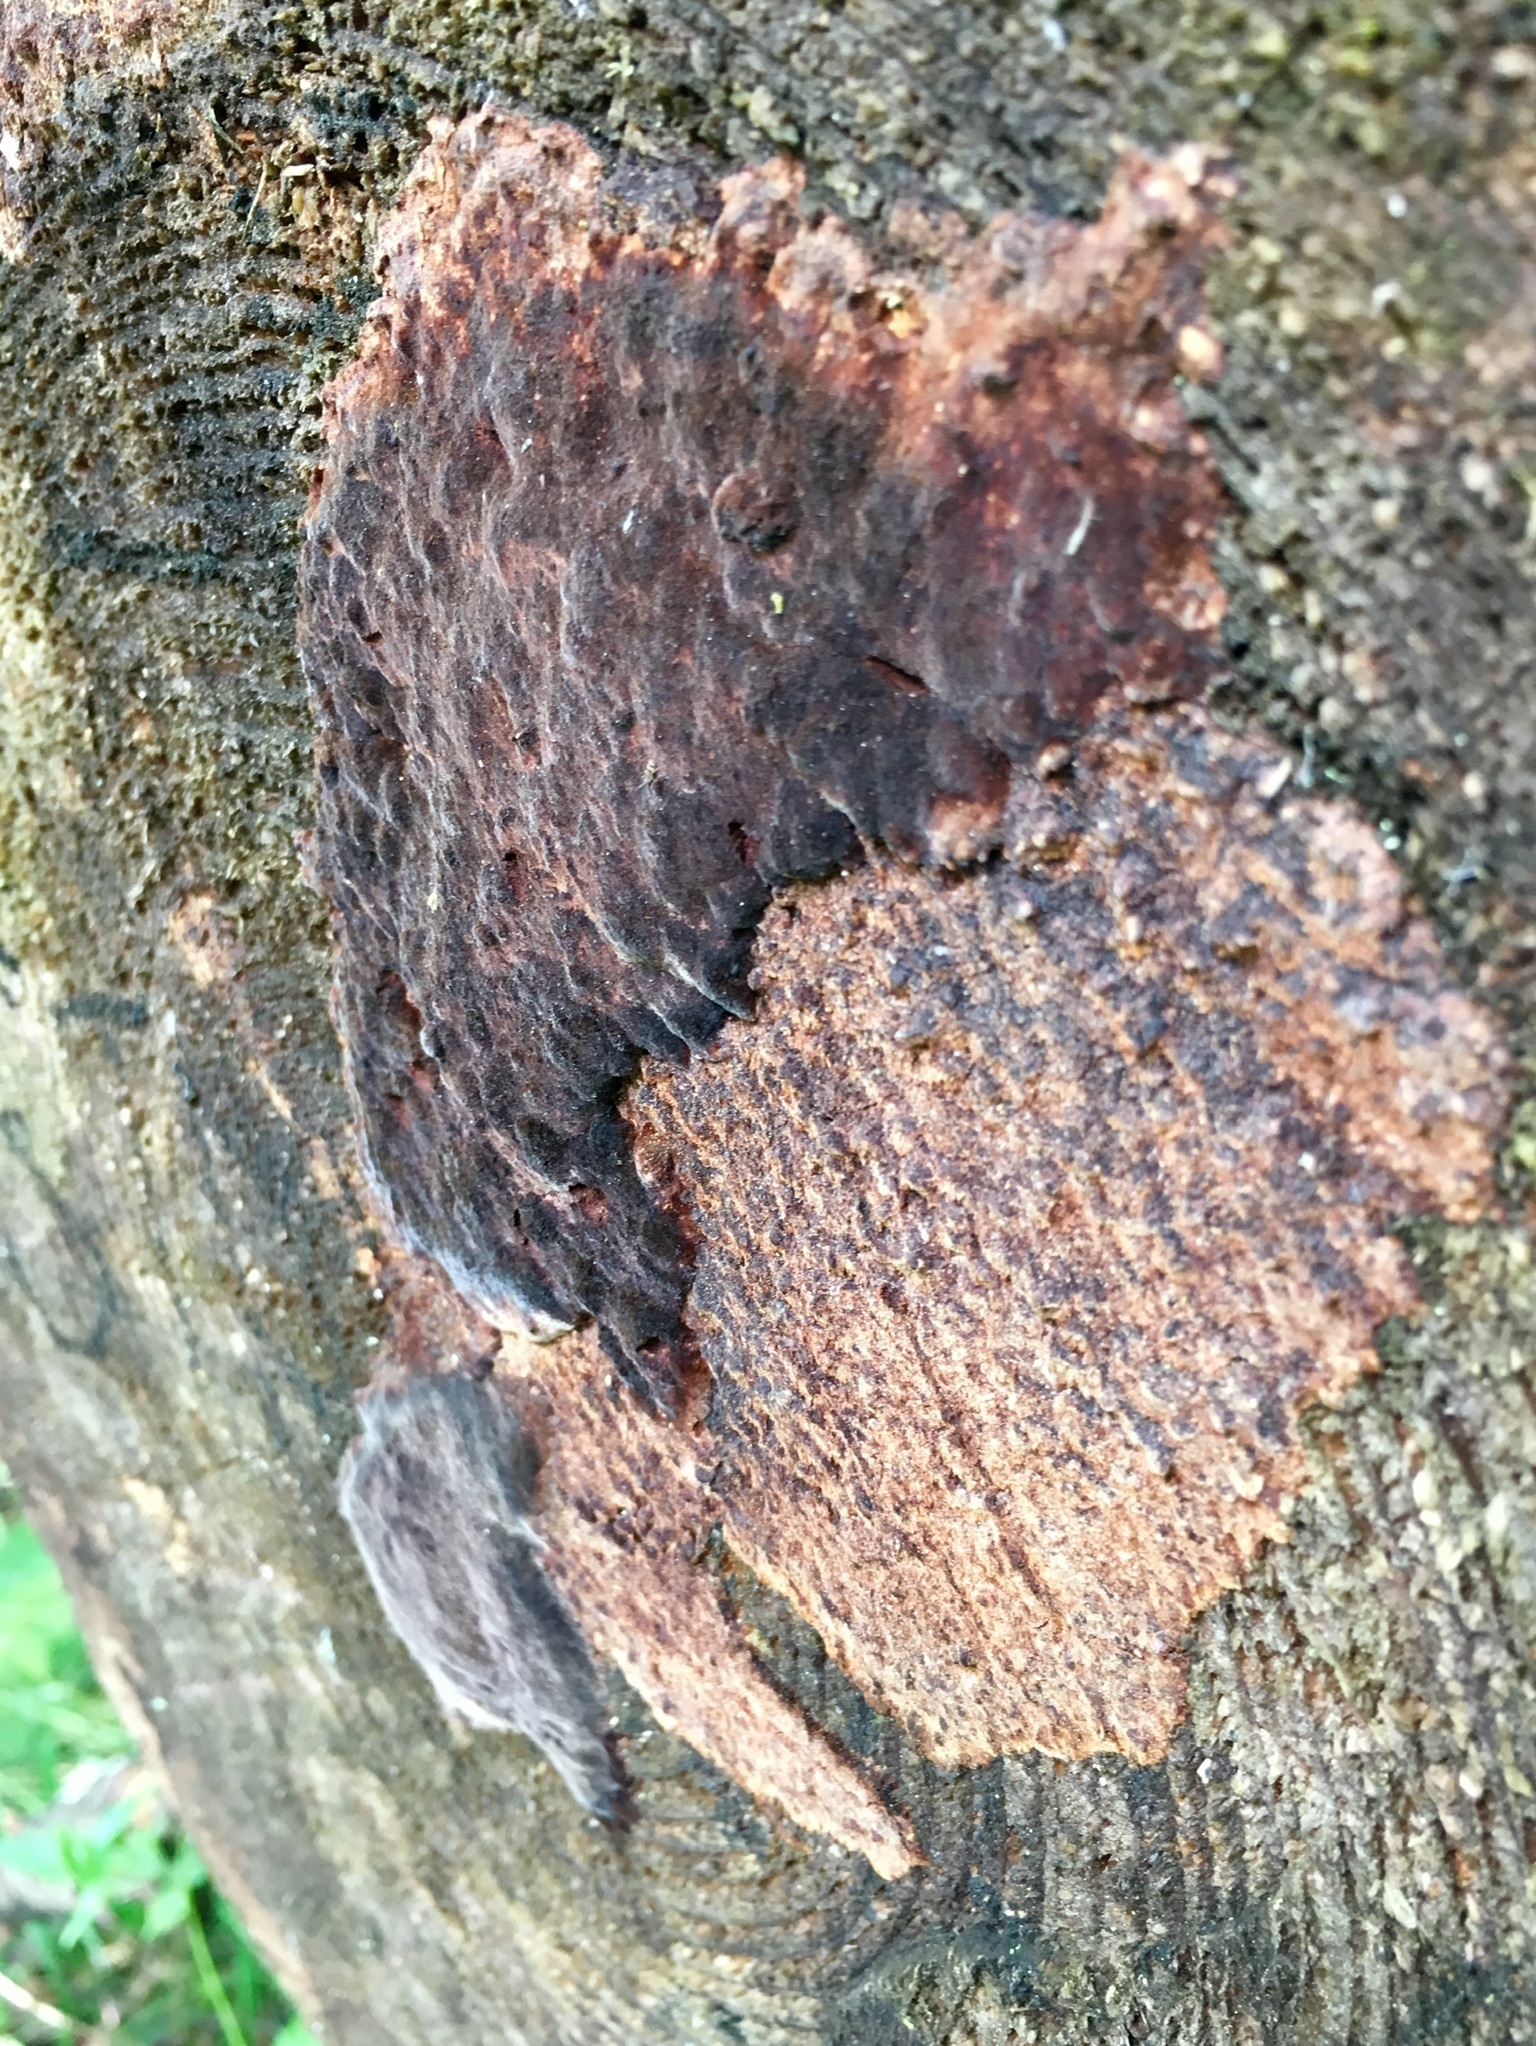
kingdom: Fungi
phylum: Basidiomycota
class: Agaricomycetes
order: Hymenochaetales
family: Hymenochaetaceae
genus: Phellinidium
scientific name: Phellinidium ferrugineofuscum
